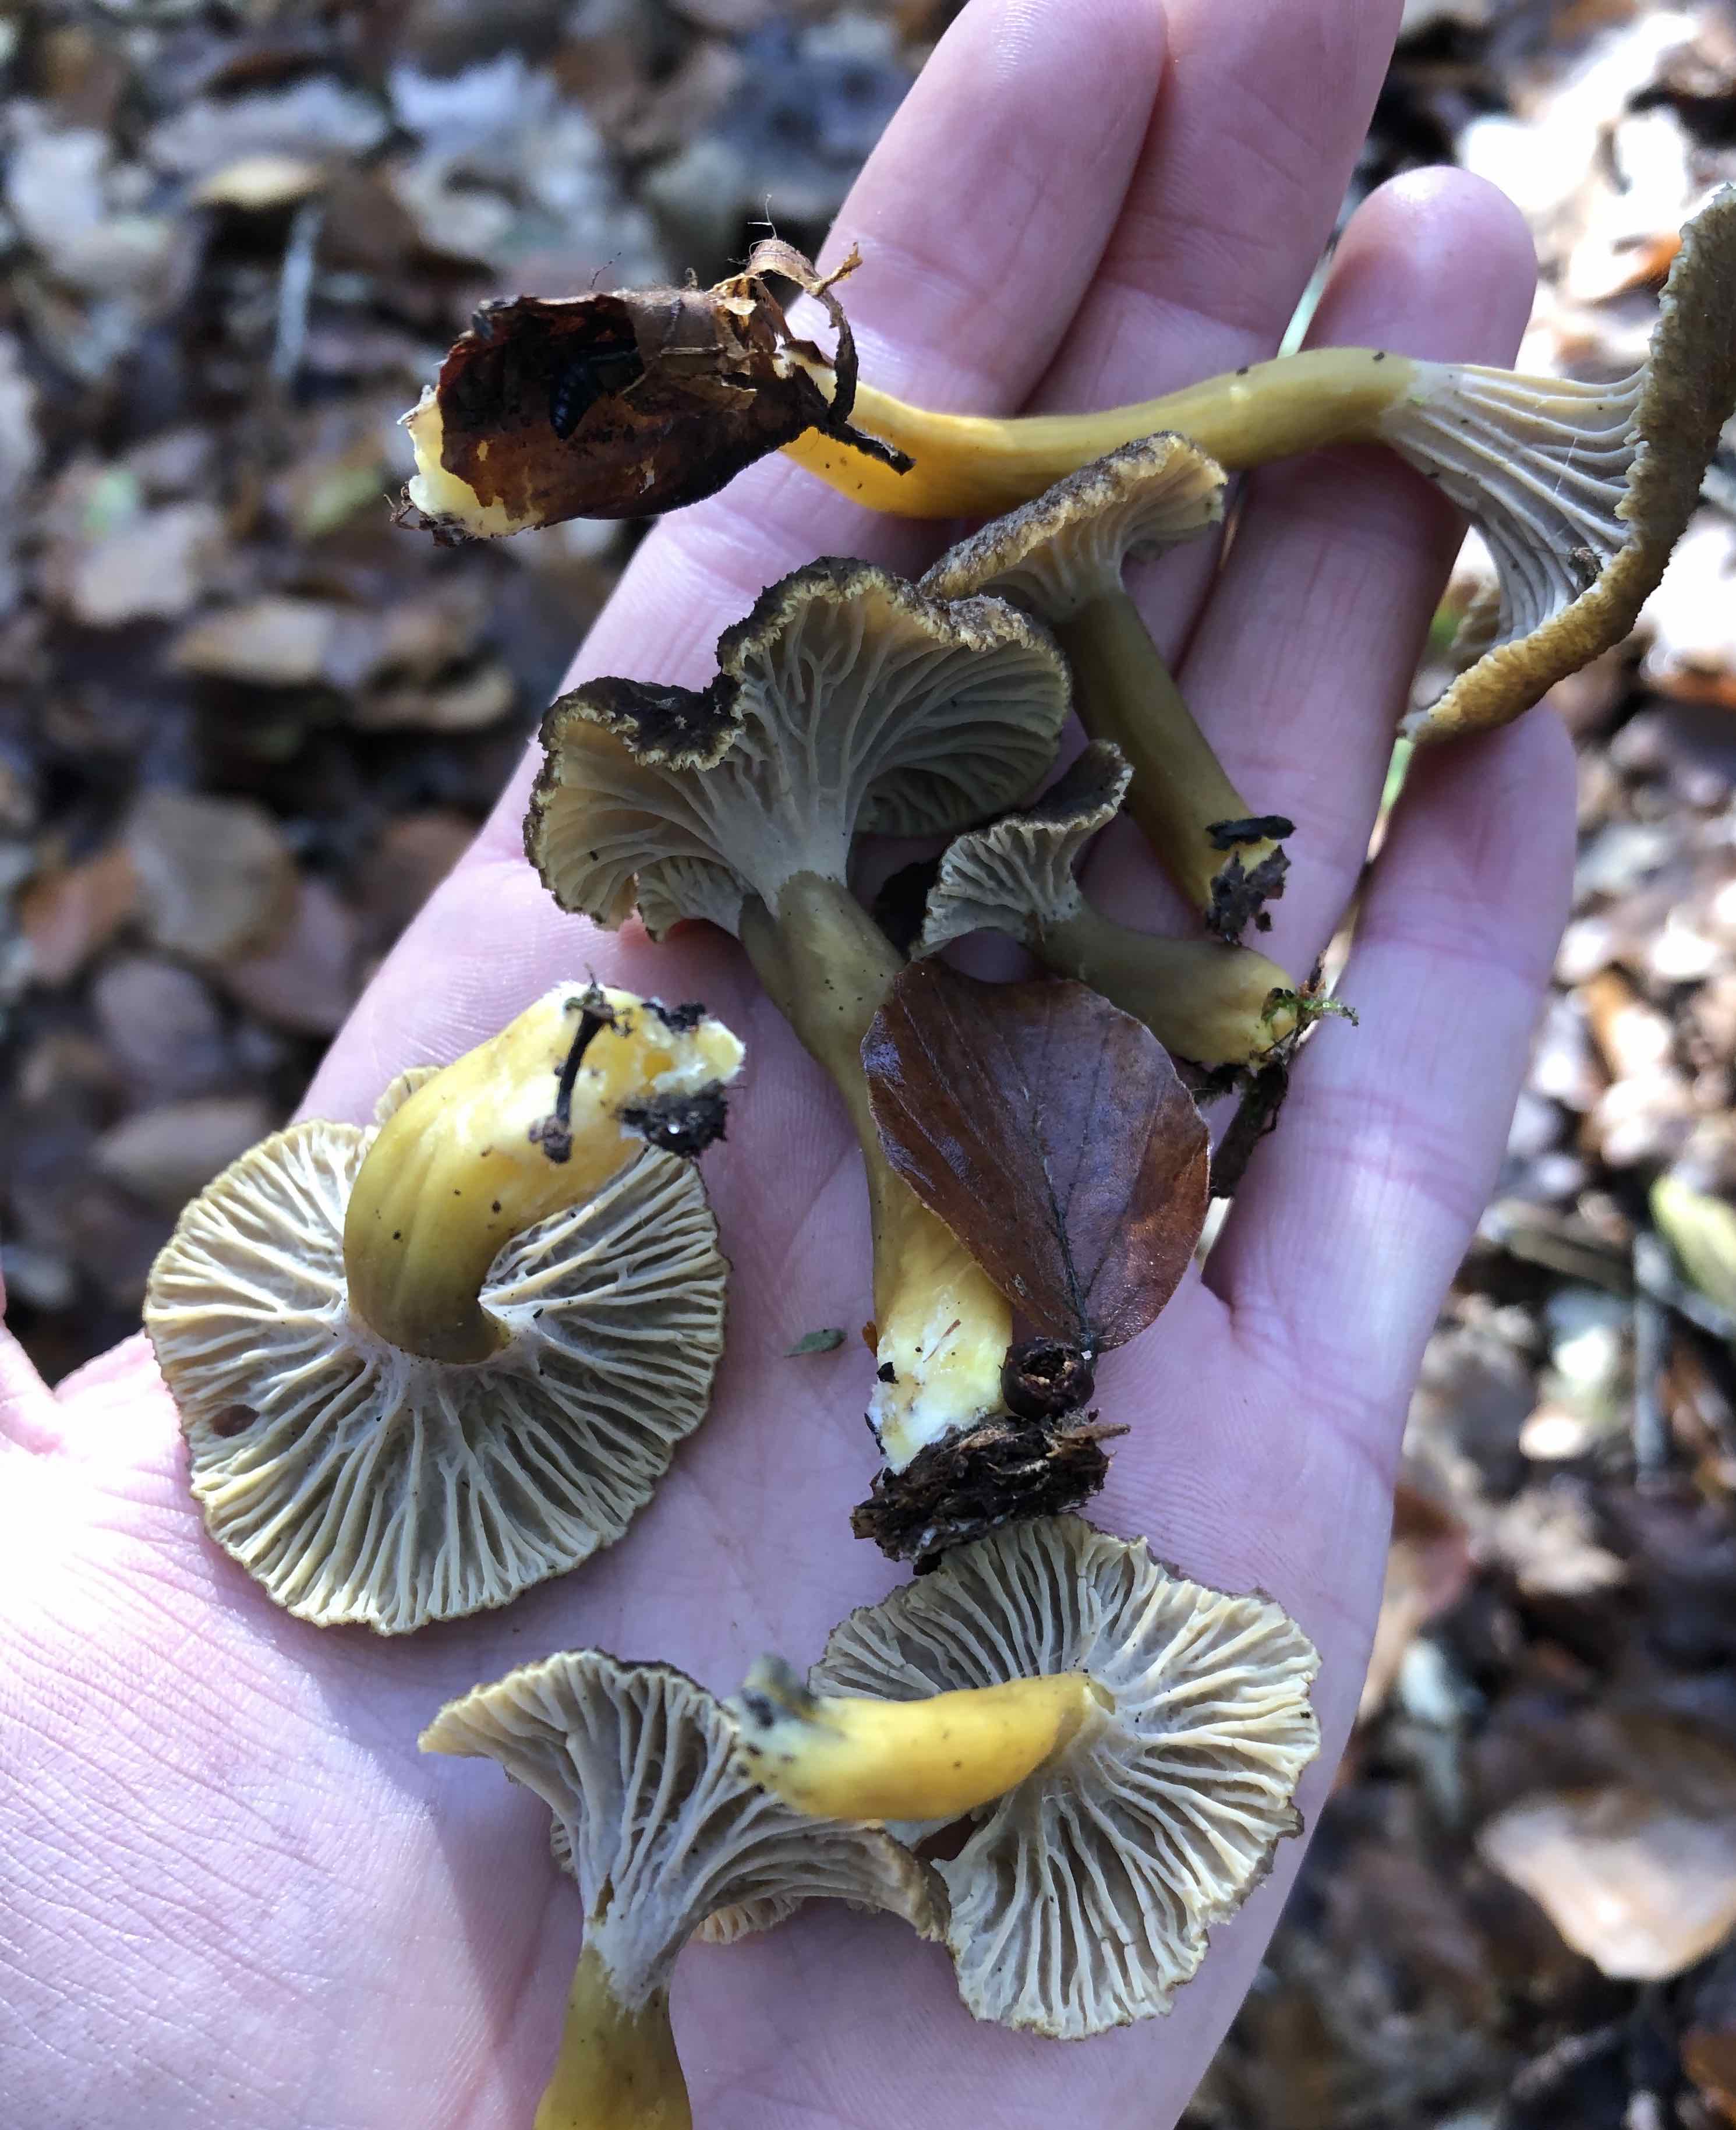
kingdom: Fungi
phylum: Basidiomycota
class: Agaricomycetes
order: Cantharellales
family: Hydnaceae
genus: Craterellus
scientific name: Craterellus tubaeformis
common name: tragt-kantarel
